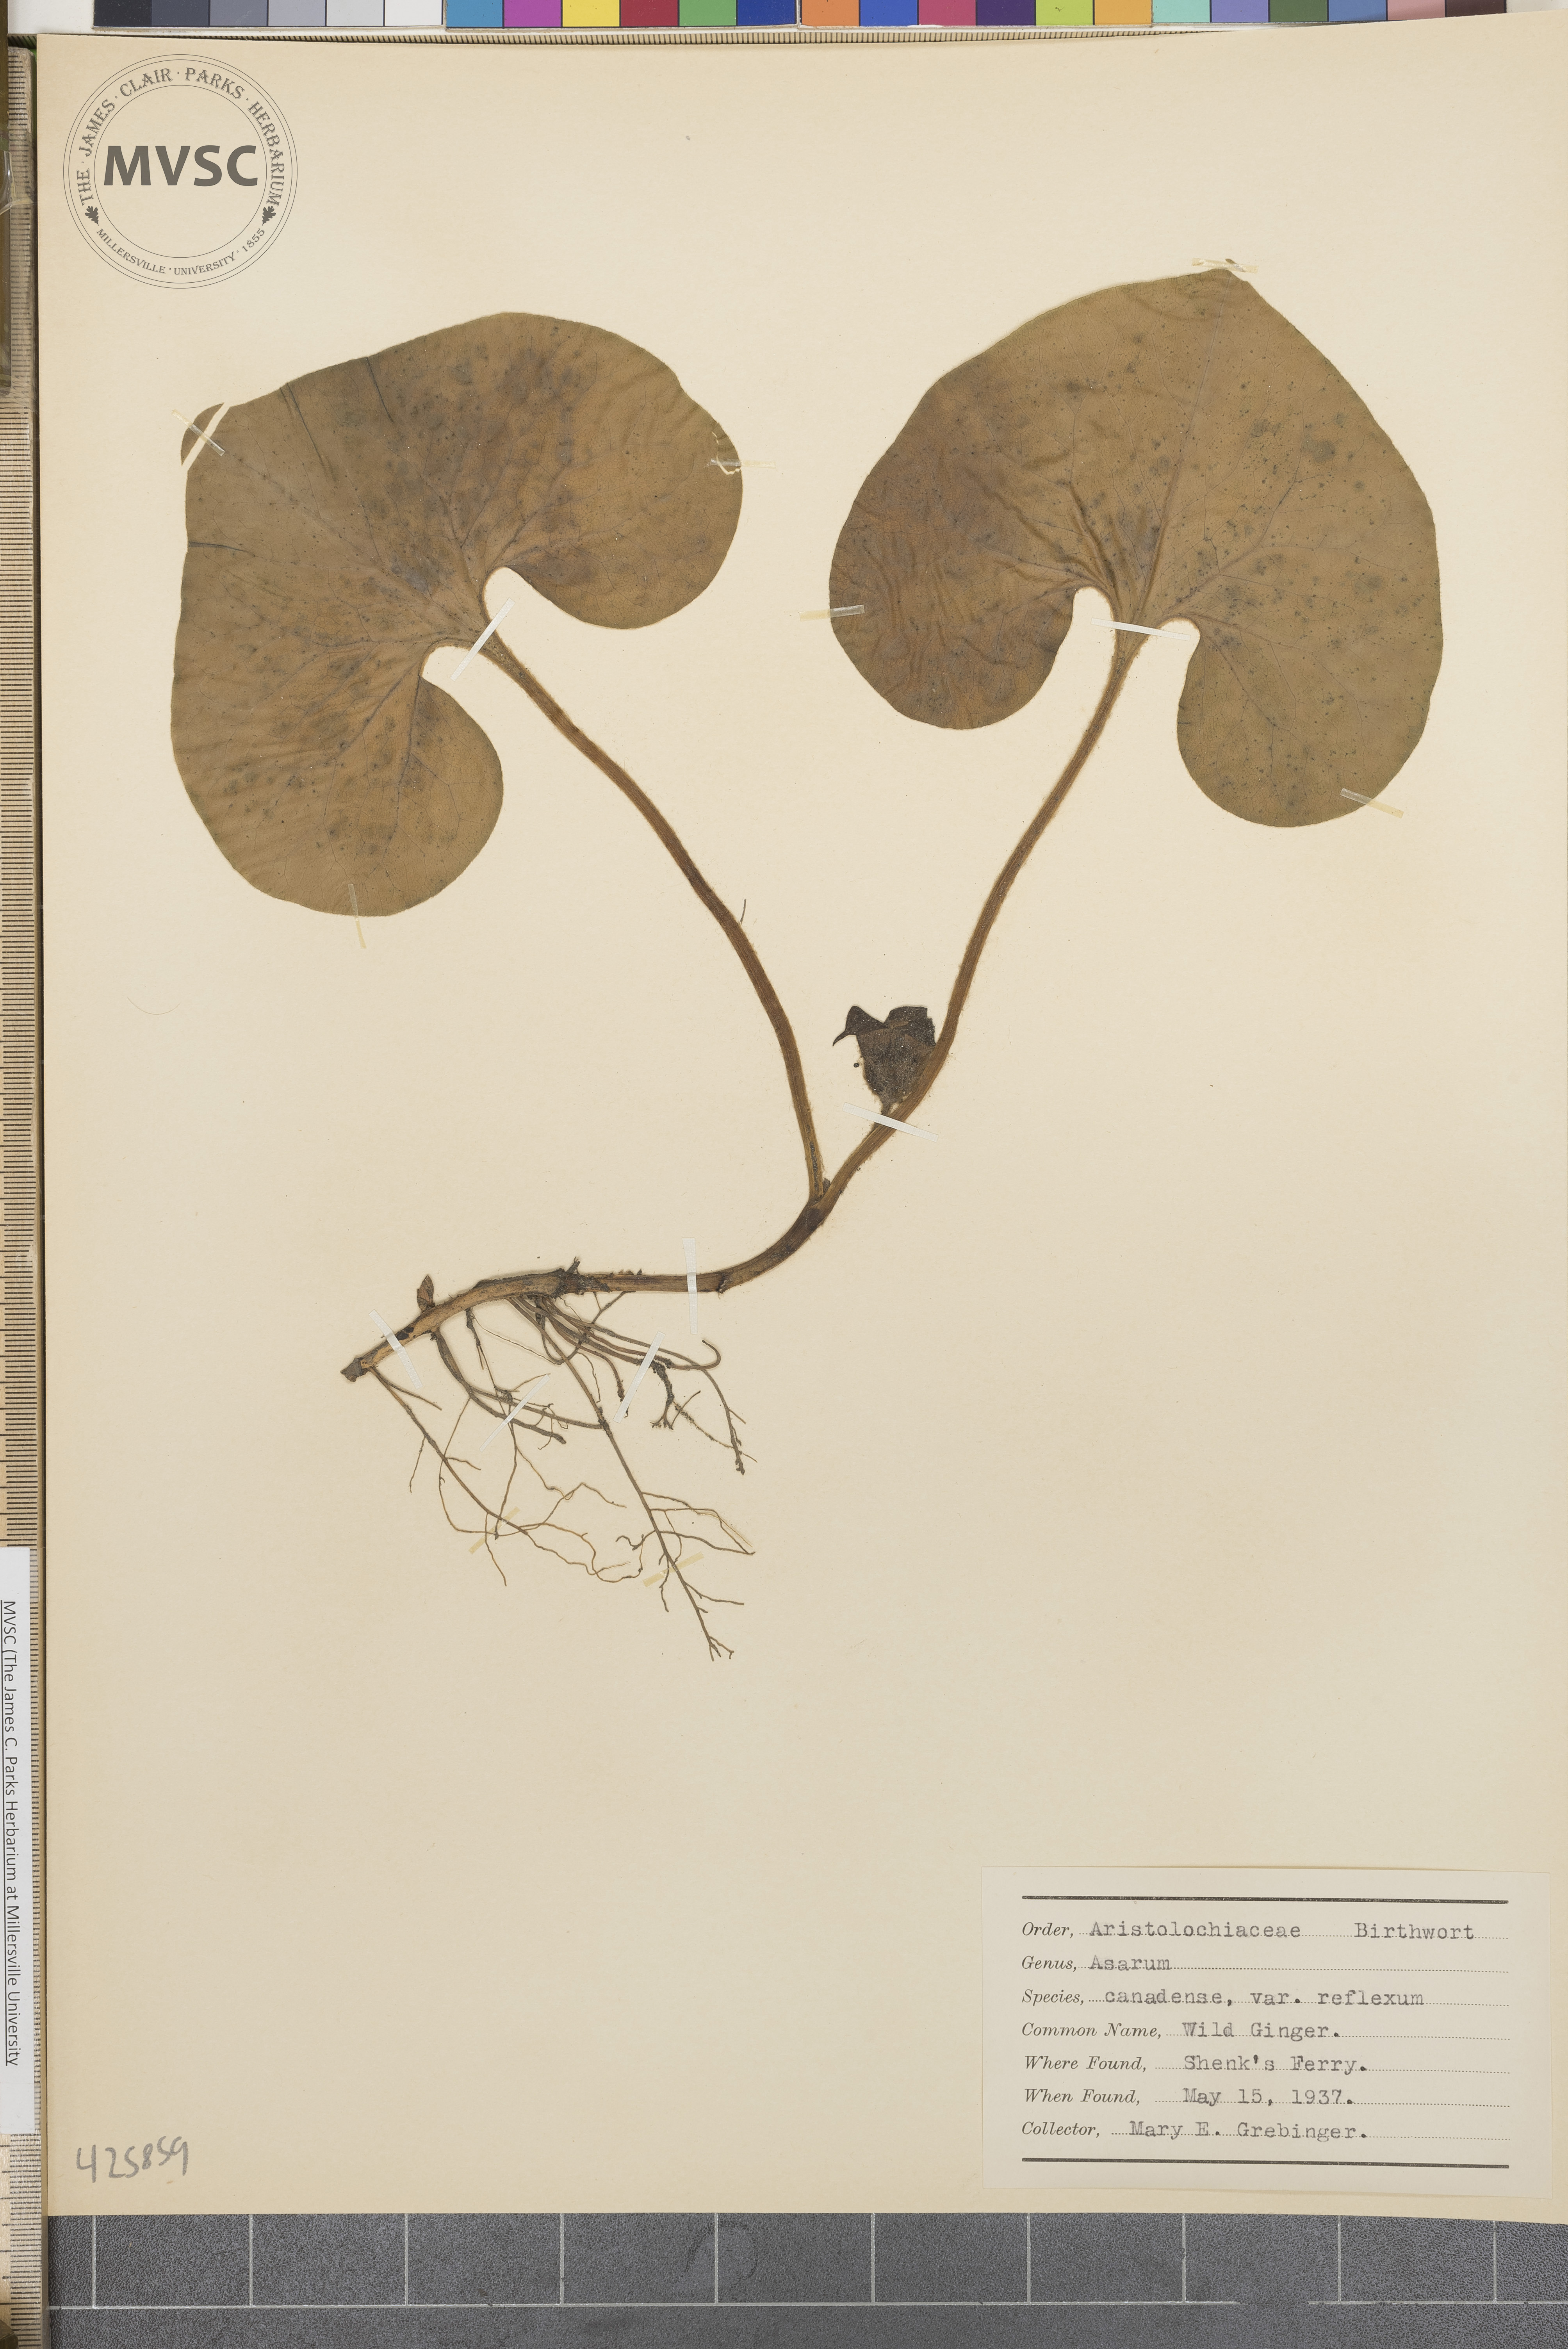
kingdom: Plantae
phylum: Tracheophyta
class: Magnoliopsida
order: Piperales
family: Aristolochiaceae
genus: Asarum
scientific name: Asarum canadense
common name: Wild Ginger
